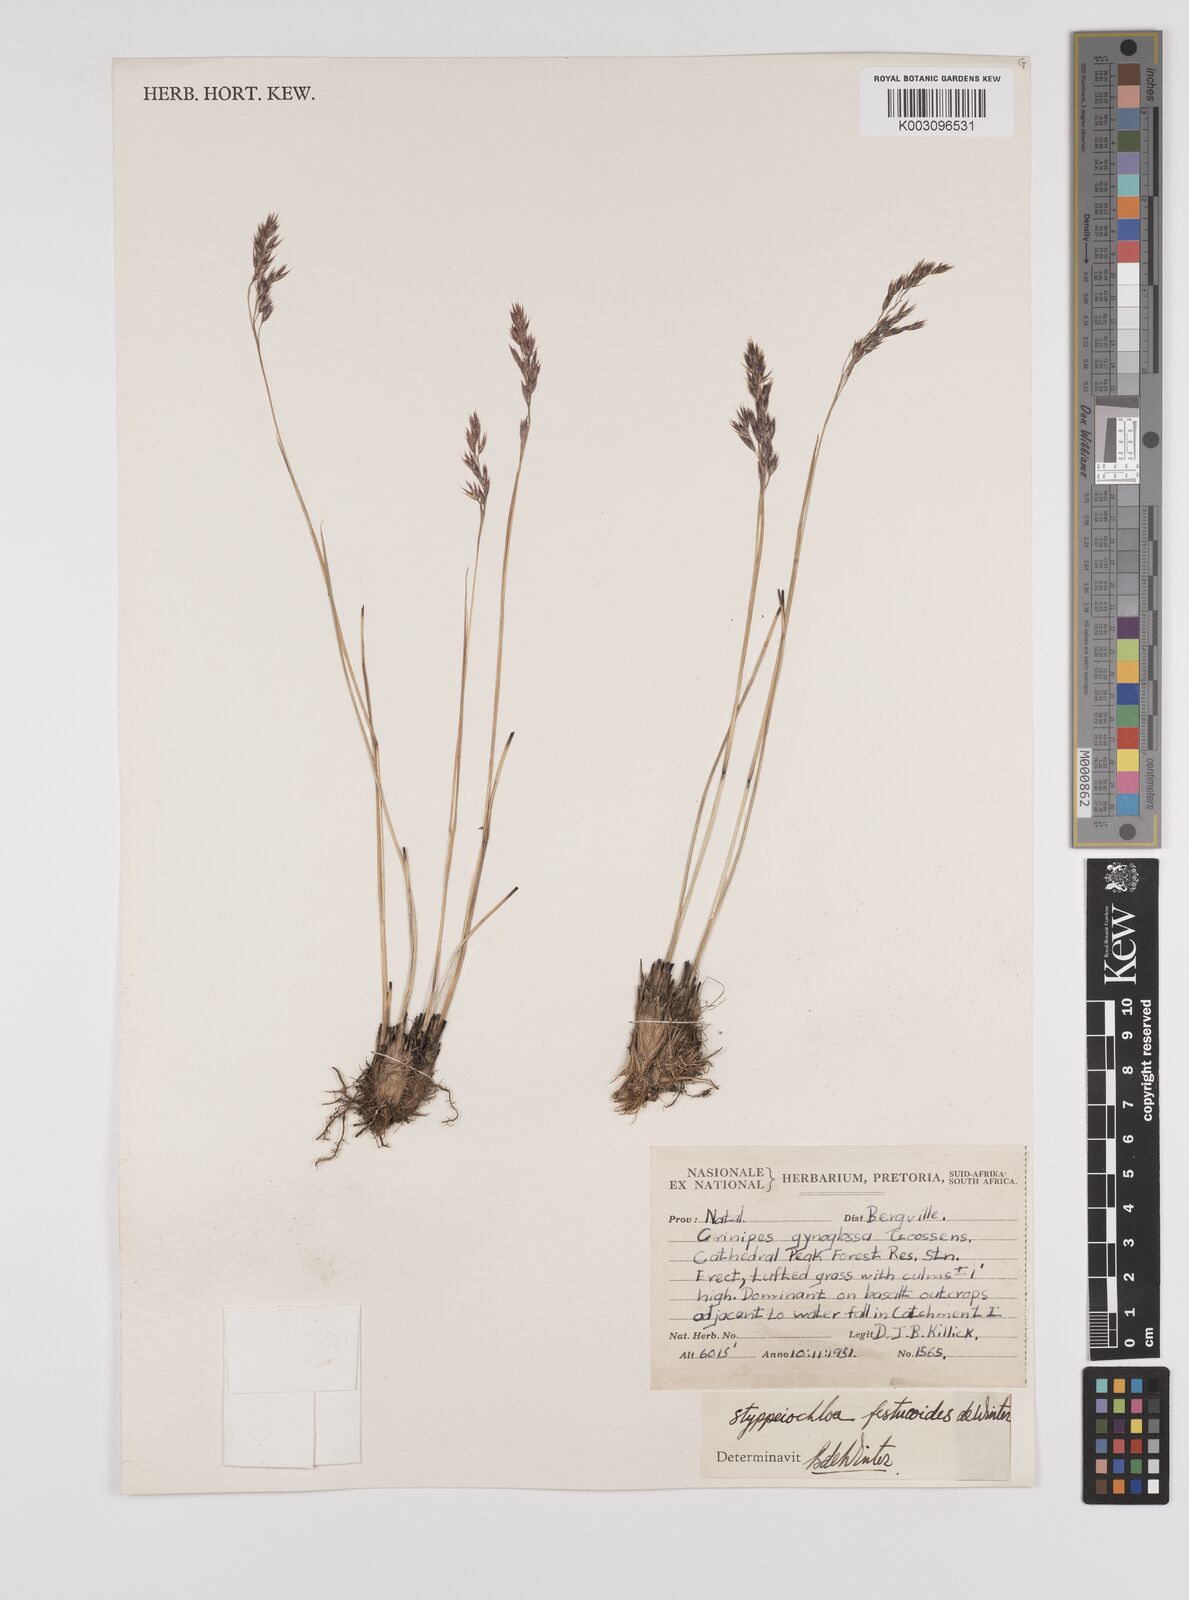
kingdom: Plantae
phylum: Tracheophyta
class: Liliopsida
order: Poales
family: Poaceae
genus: Styppeiochloa
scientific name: Styppeiochloa gynoglossa
